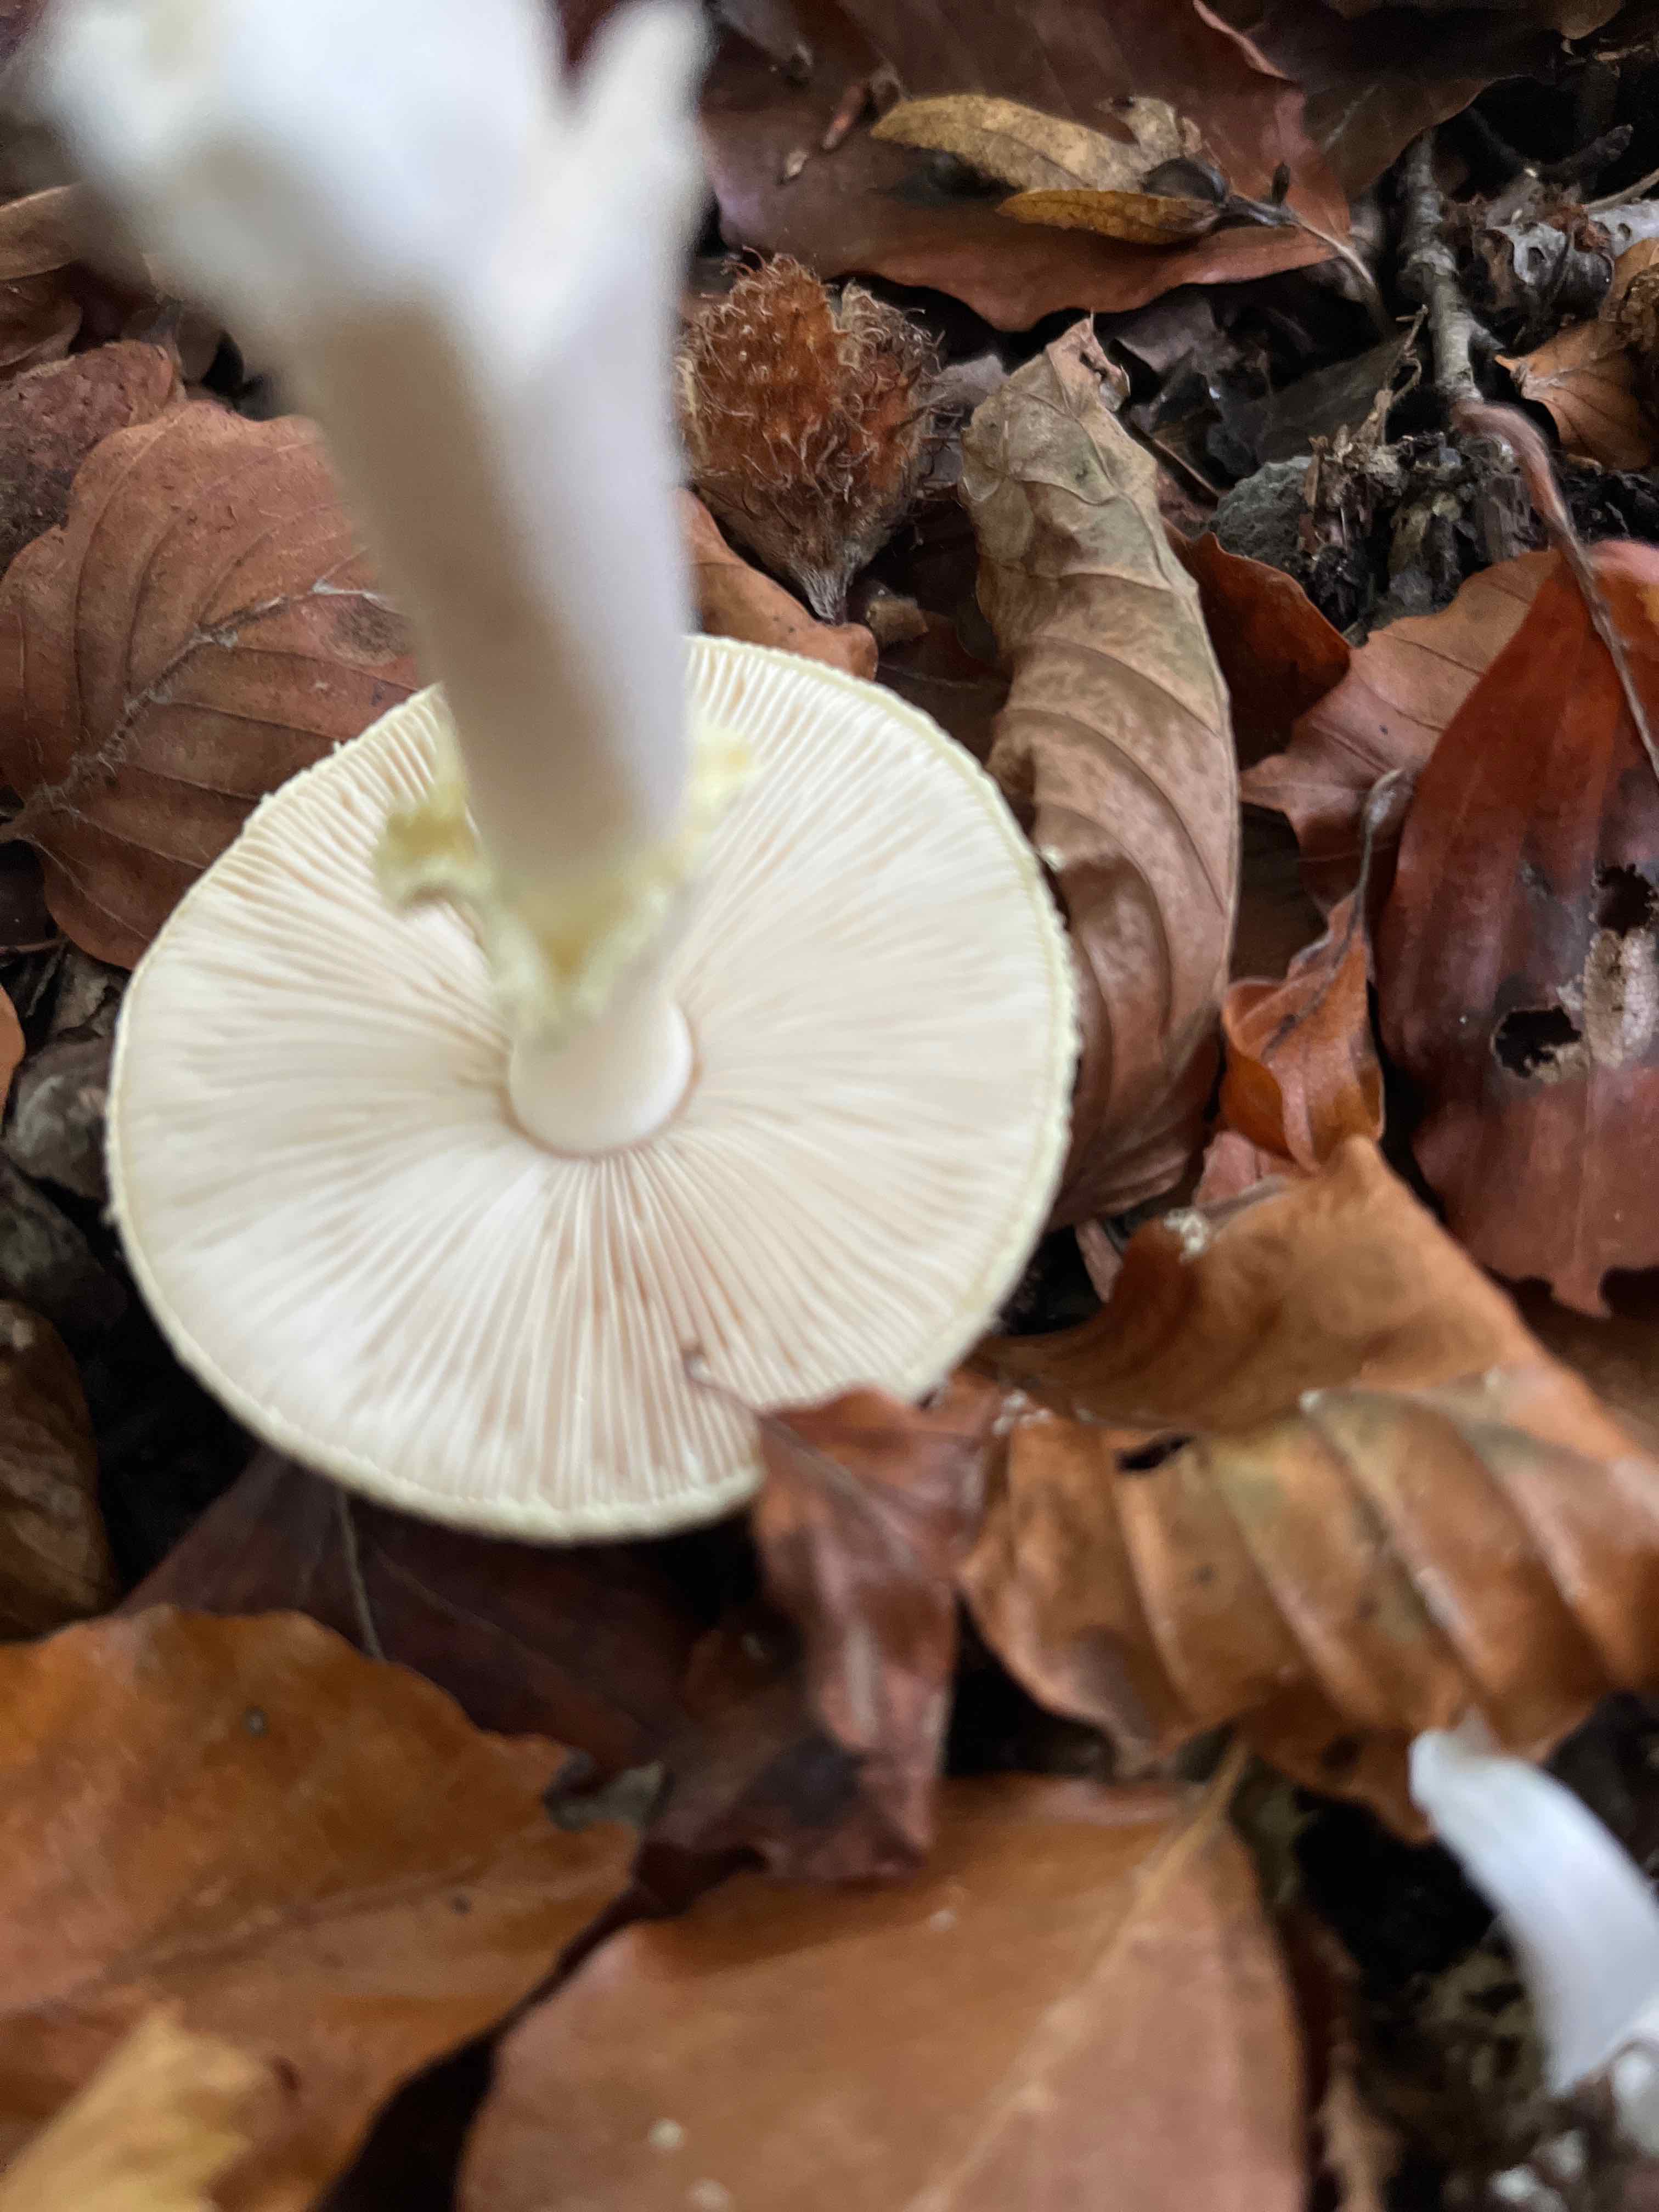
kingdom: Fungi
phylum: Basidiomycota
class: Agaricomycetes
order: Agaricales
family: Amanitaceae
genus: Amanita
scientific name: Amanita citrina
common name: kugleknoldet fluesvamp
